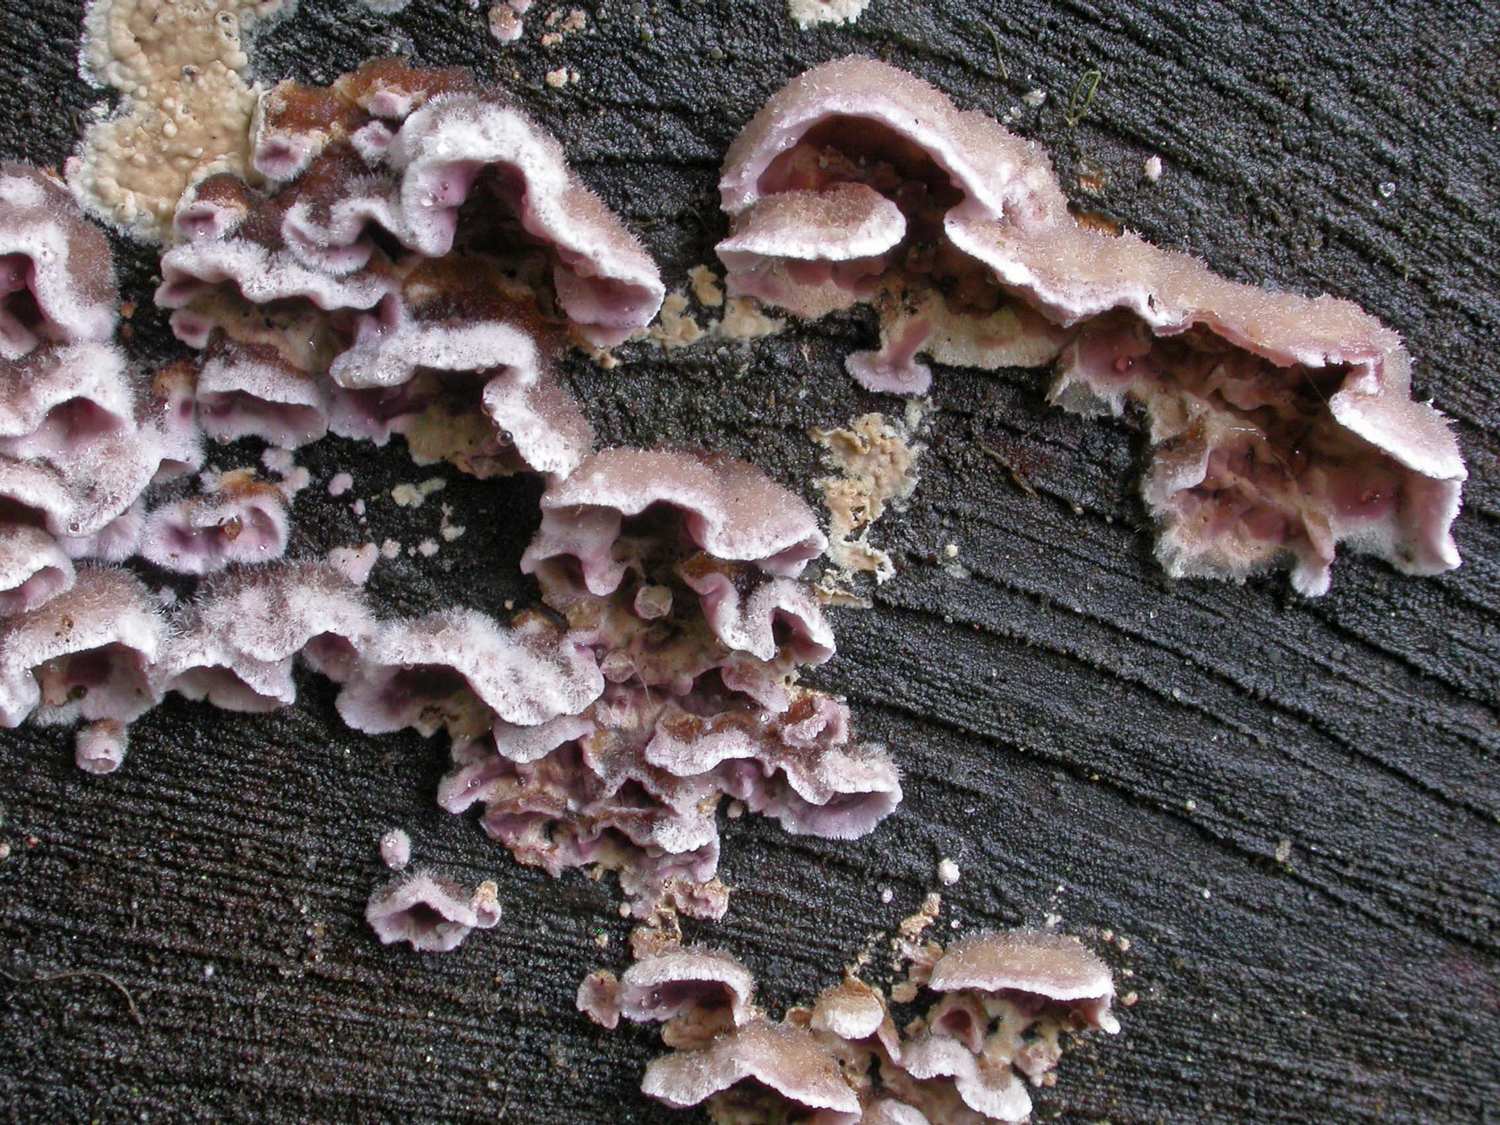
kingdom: Fungi
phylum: Basidiomycota
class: Agaricomycetes
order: Agaricales
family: Cyphellaceae
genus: Chondrostereum
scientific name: Chondrostereum purpureum
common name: purpurlædersvamp
